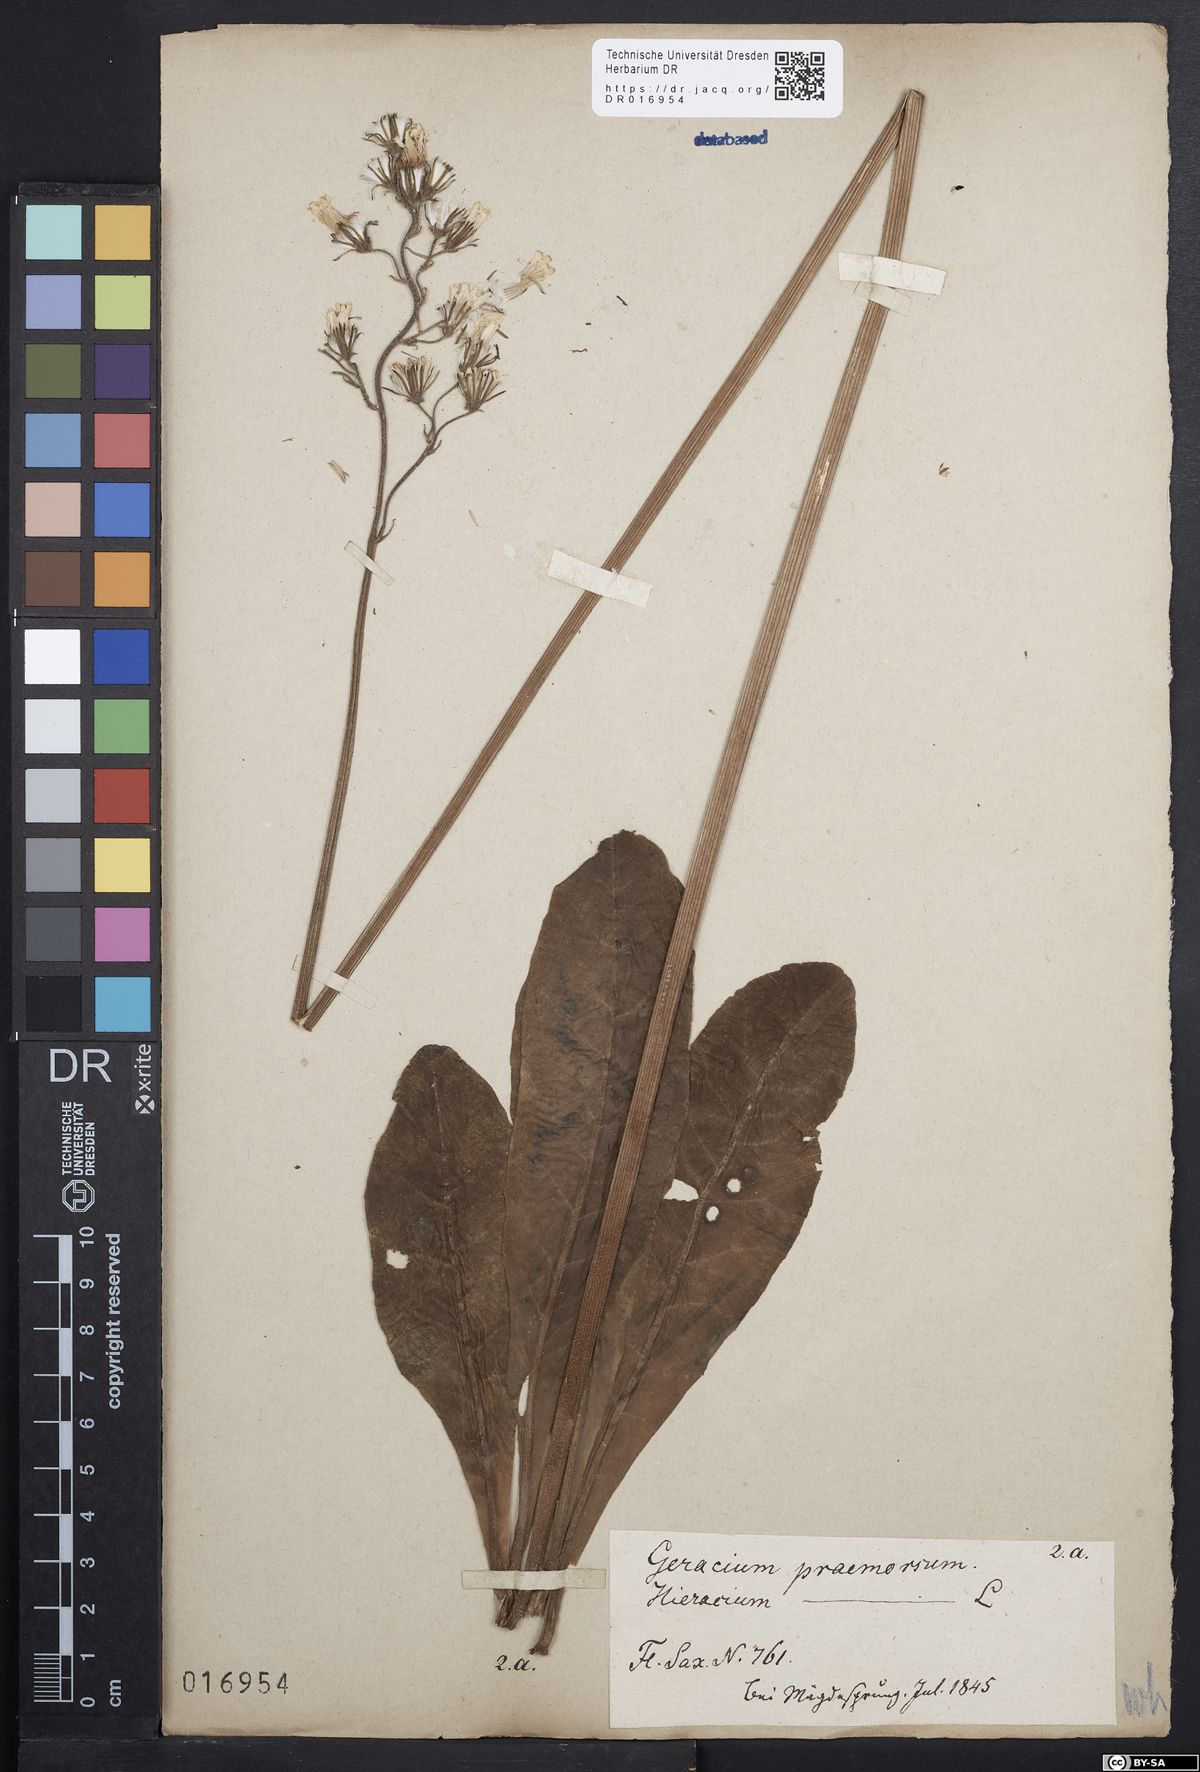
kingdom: Plantae
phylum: Tracheophyta
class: Magnoliopsida
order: Asterales
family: Asteraceae
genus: Crepis
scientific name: Crepis praemorsa
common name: Leafless hawk's-beard
